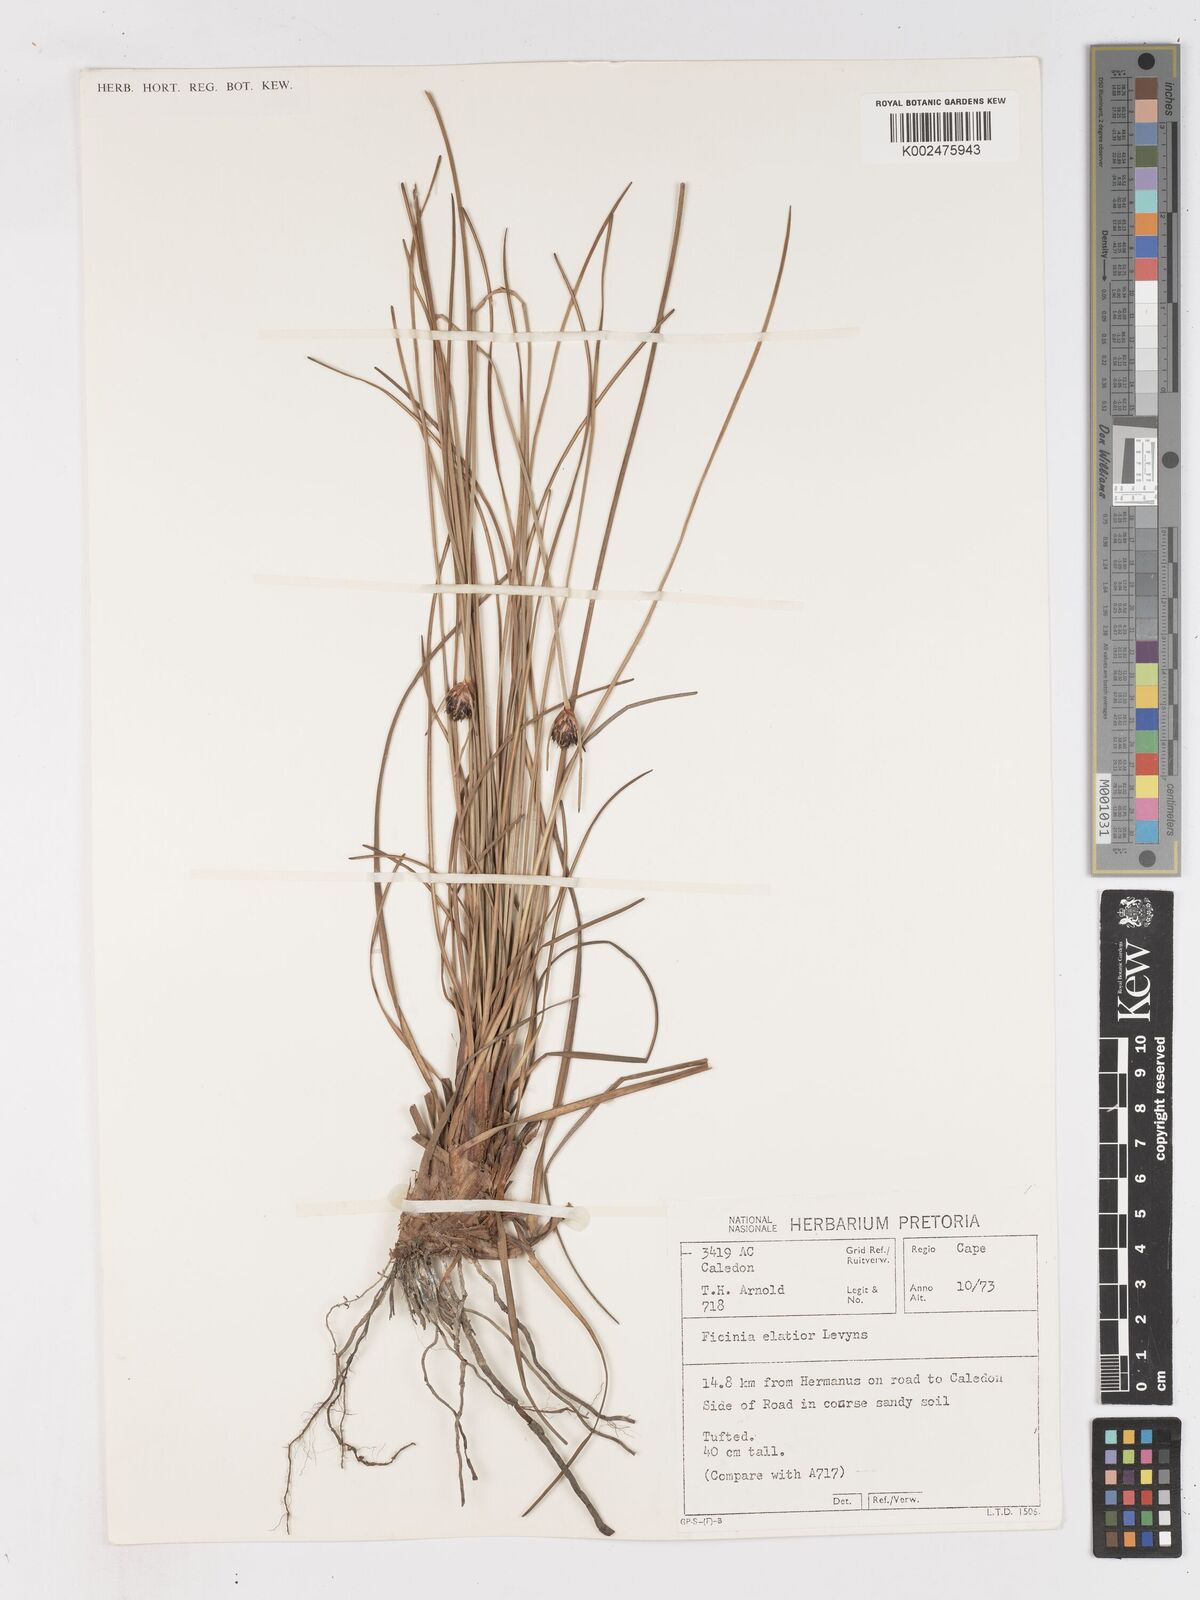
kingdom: Plantae
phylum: Tracheophyta
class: Liliopsida
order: Poales
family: Cyperaceae
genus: Ficinia
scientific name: Ficinia elatior
